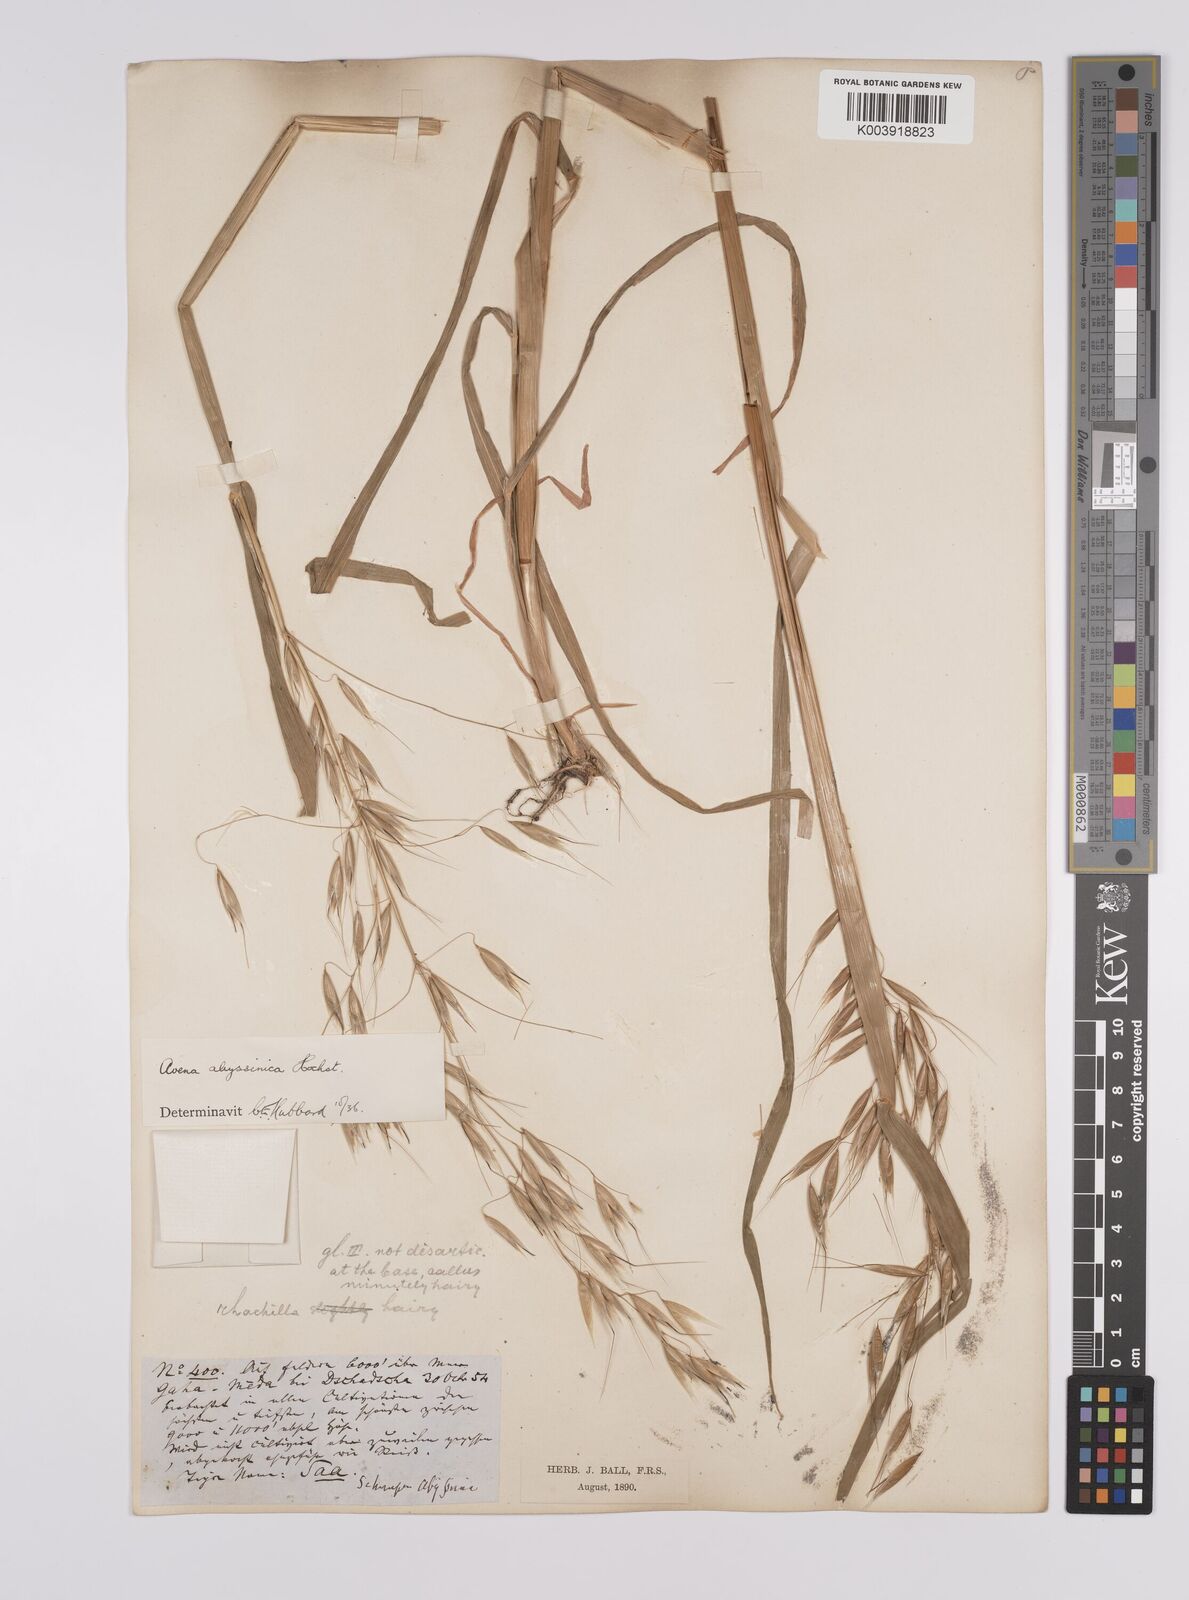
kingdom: Plantae
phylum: Tracheophyta
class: Liliopsida
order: Poales
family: Poaceae
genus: Avena
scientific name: Avena abyssinica
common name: Ethiopian oat
